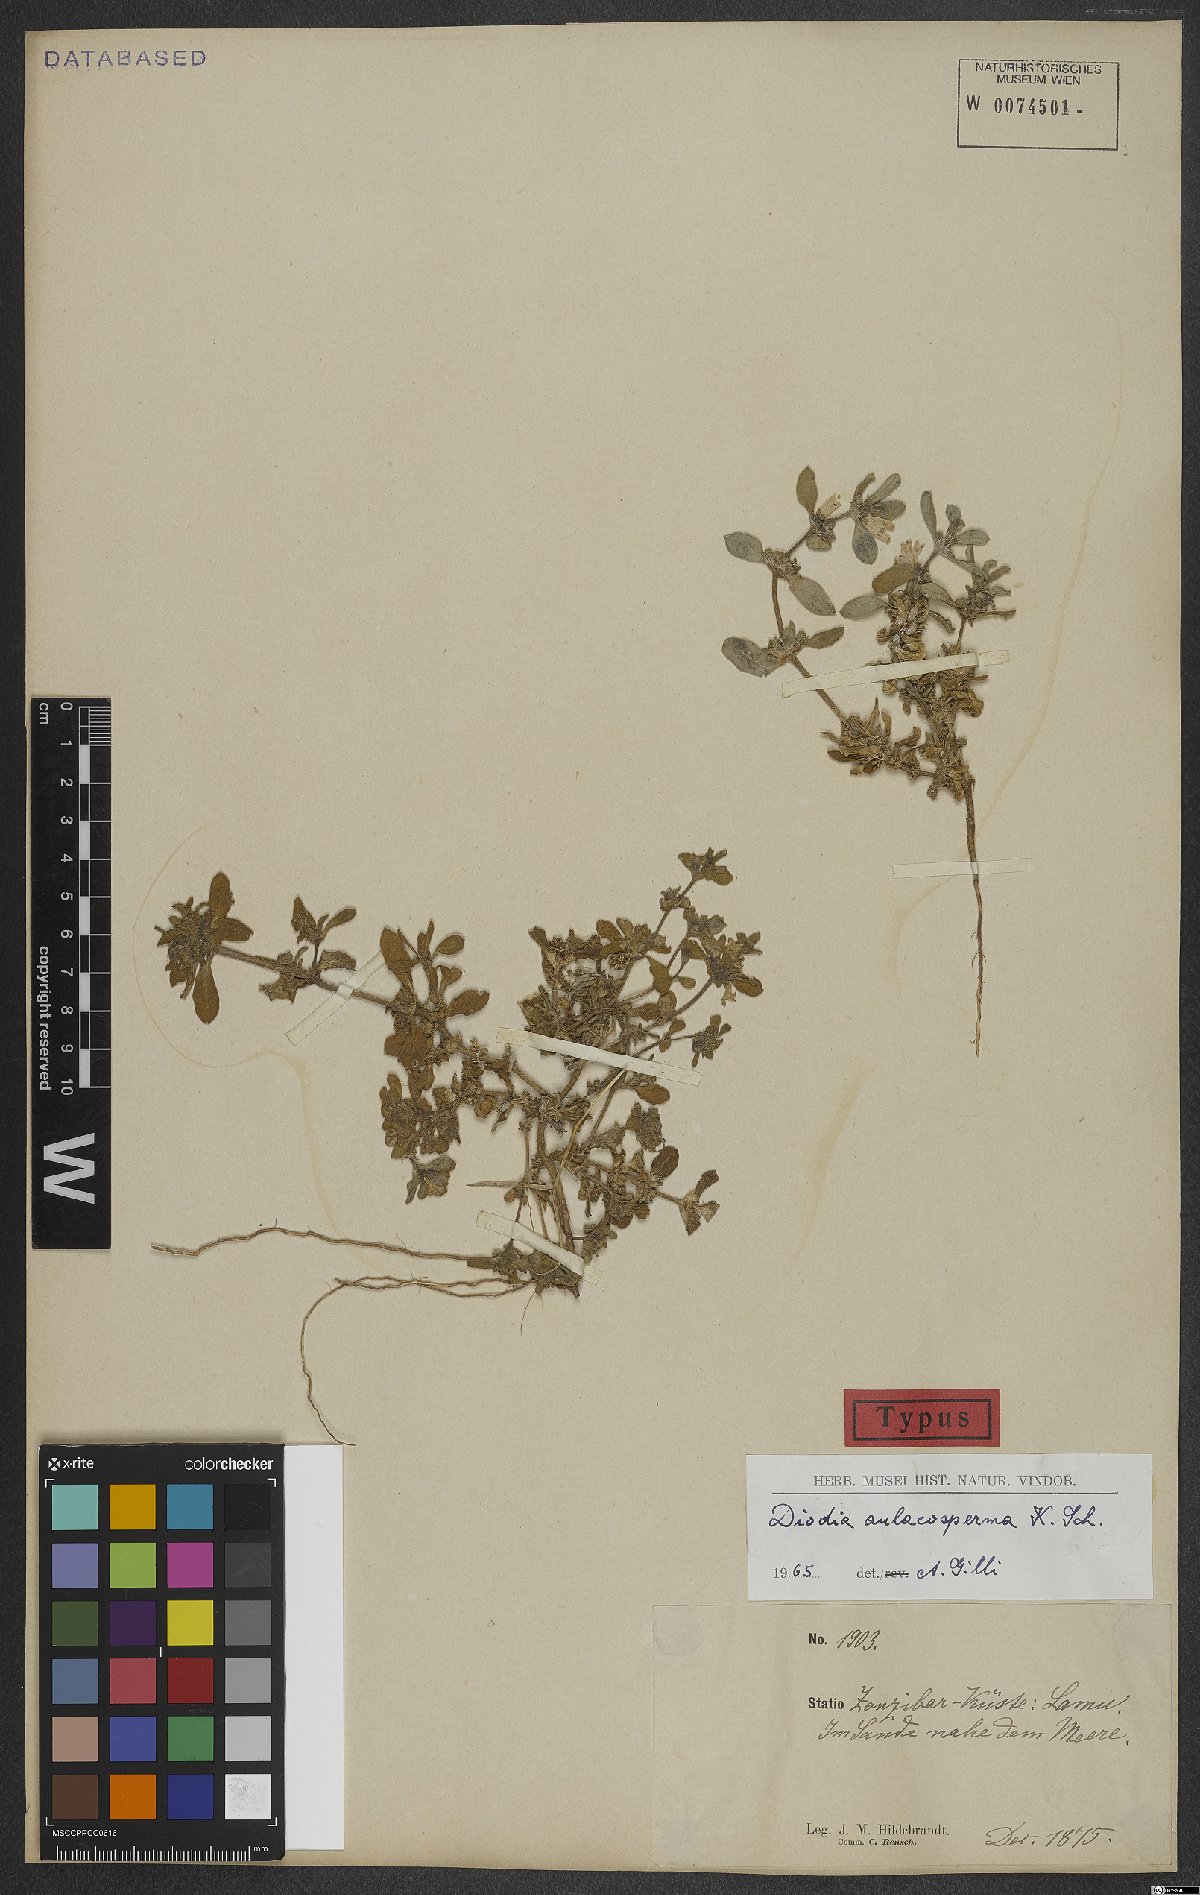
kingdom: Plantae
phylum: Tracheophyta
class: Magnoliopsida
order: Gentianales
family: Rubiaceae
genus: Diodia
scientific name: Diodia aulacosperma
